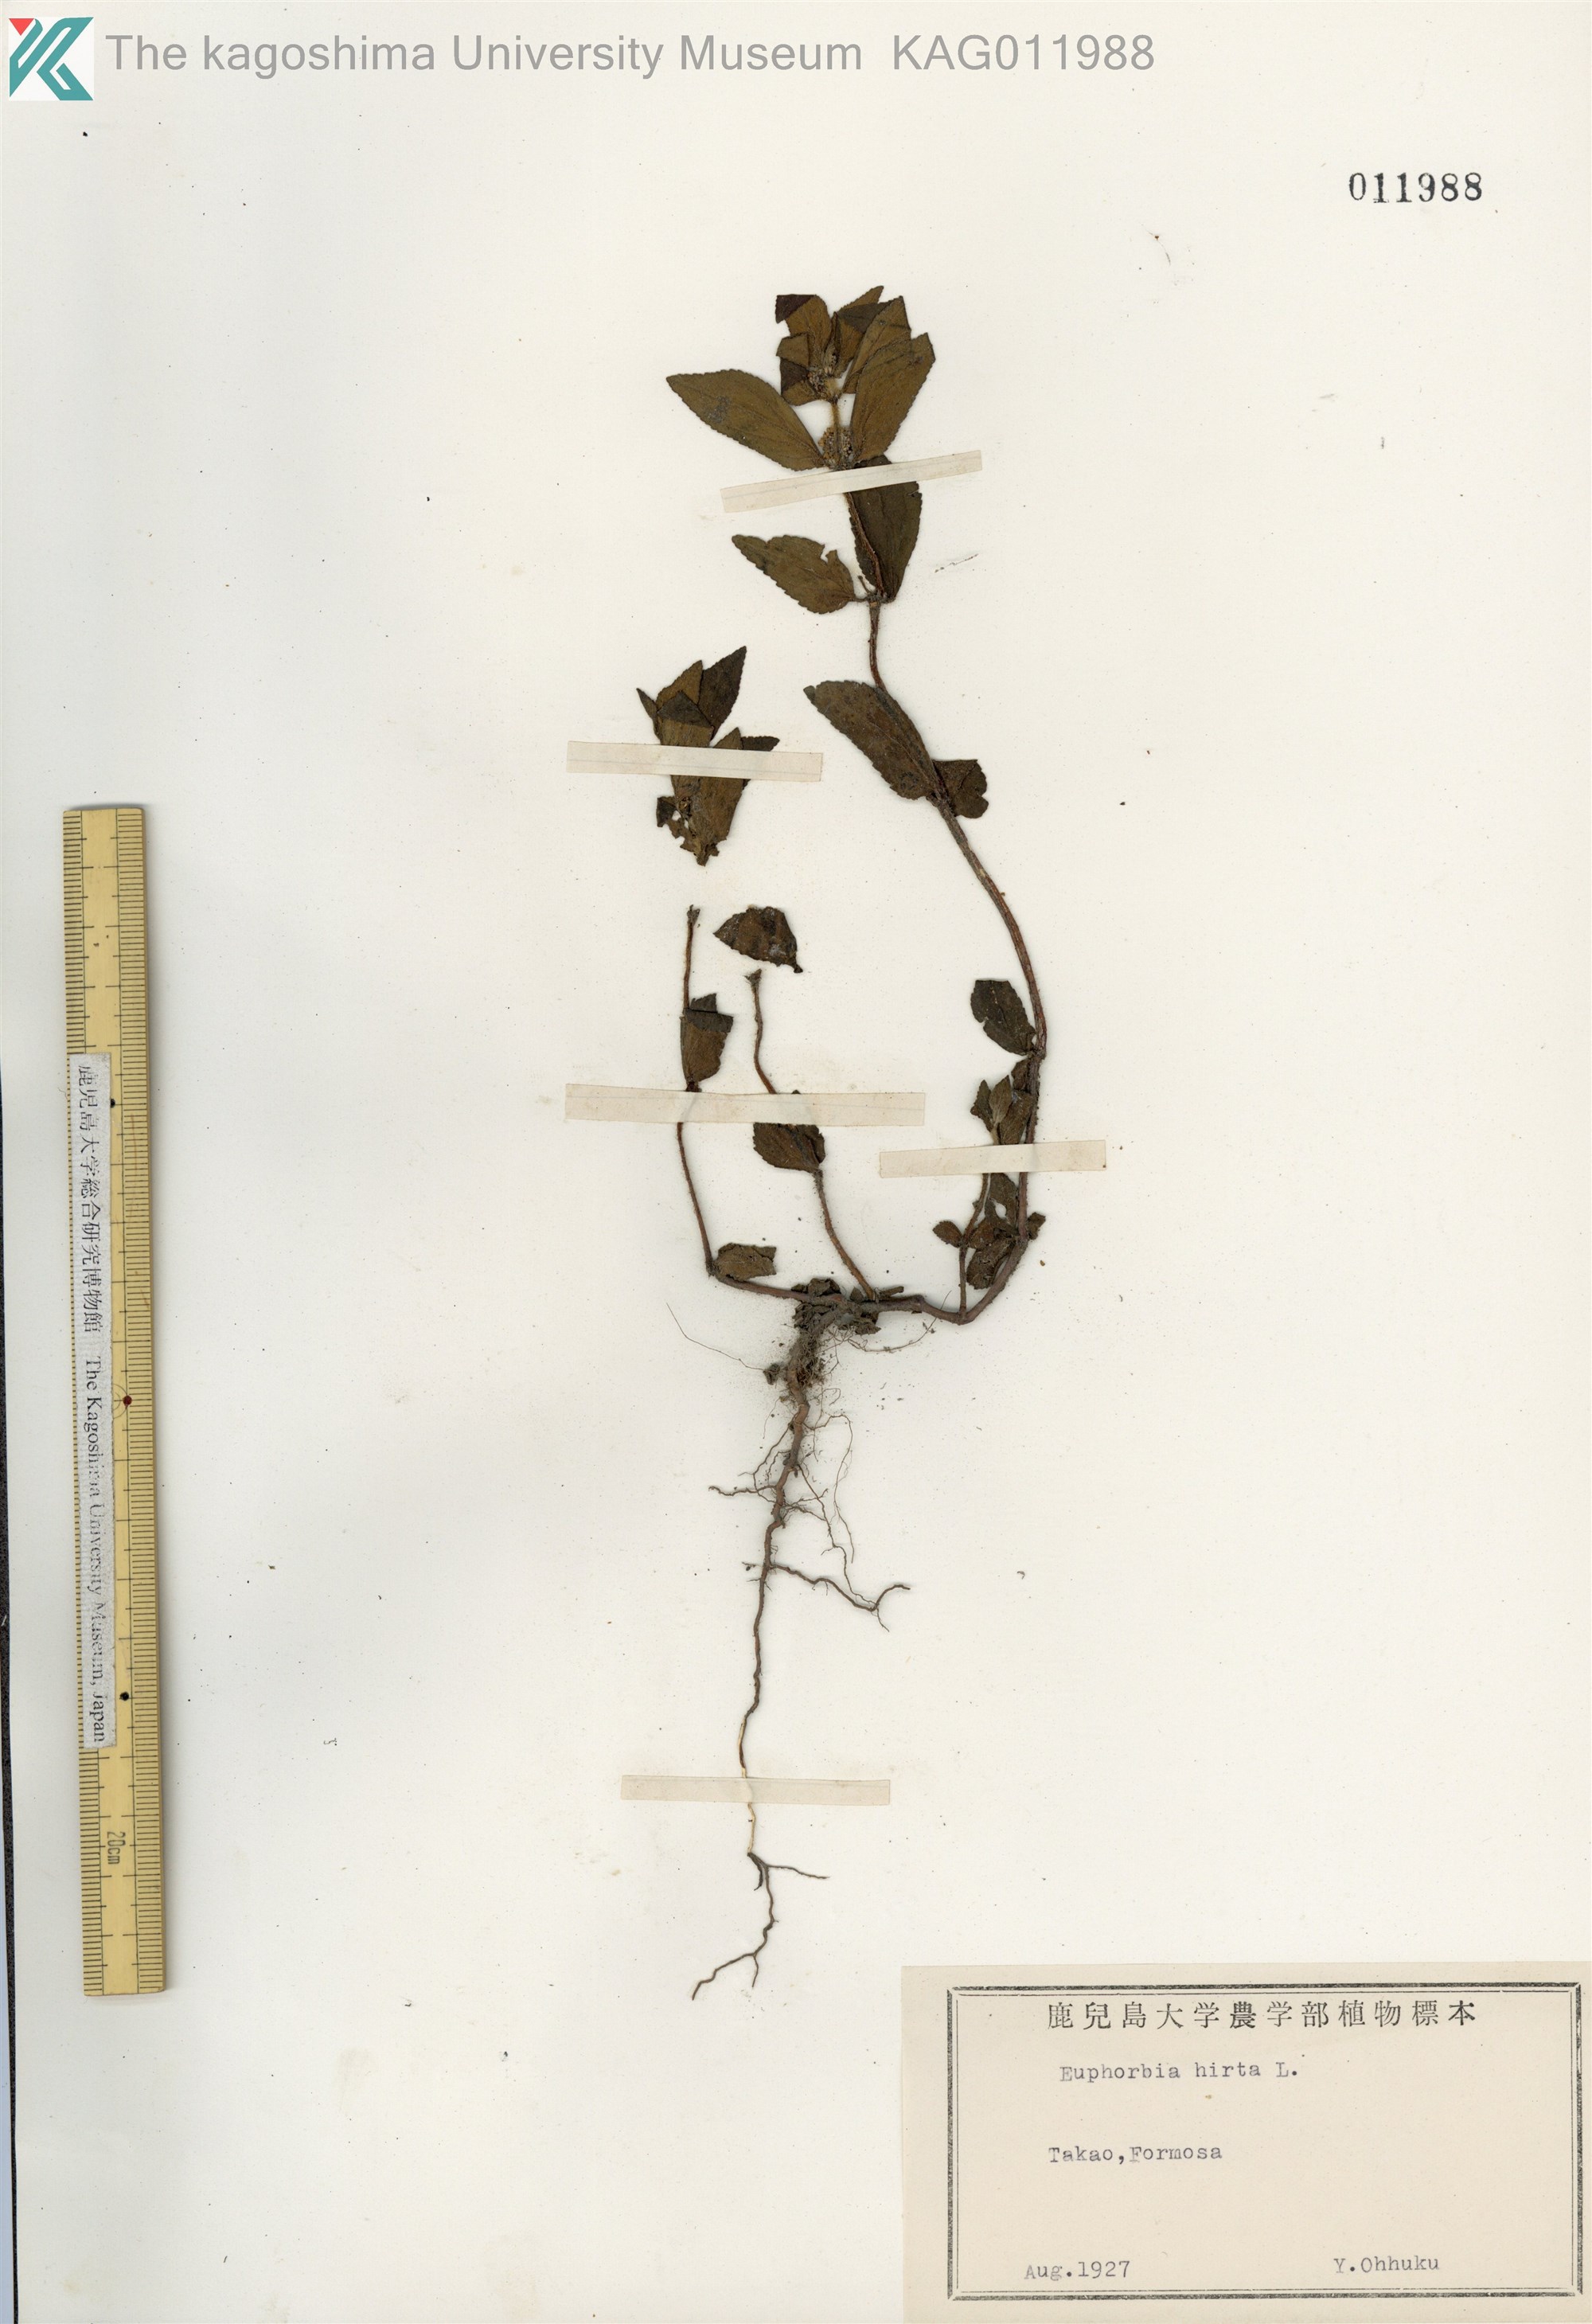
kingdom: Plantae
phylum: Tracheophyta
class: Magnoliopsida
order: Malpighiales
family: Euphorbiaceae
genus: Euphorbia
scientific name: Euphorbia hirta
